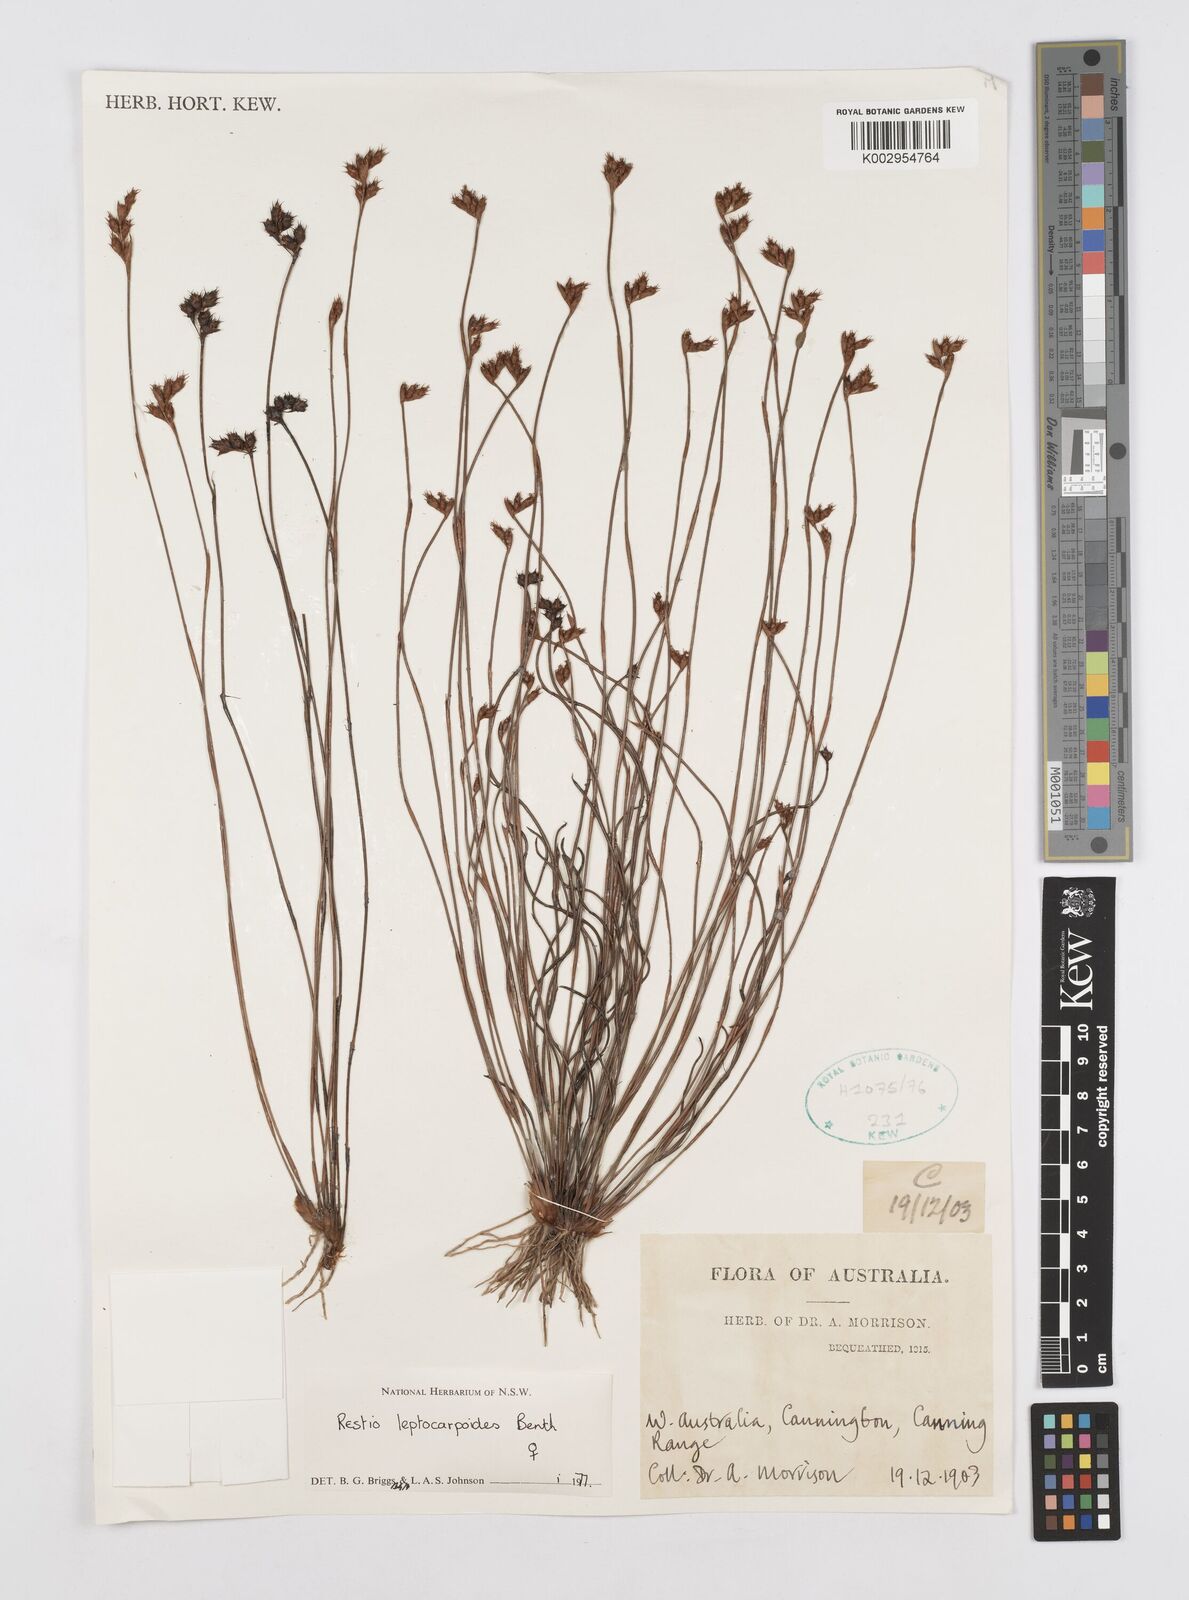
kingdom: Plantae
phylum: Tracheophyta
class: Liliopsida
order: Poales
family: Restionaceae
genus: Cytogonidium
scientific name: Cytogonidium leptocarpoides
